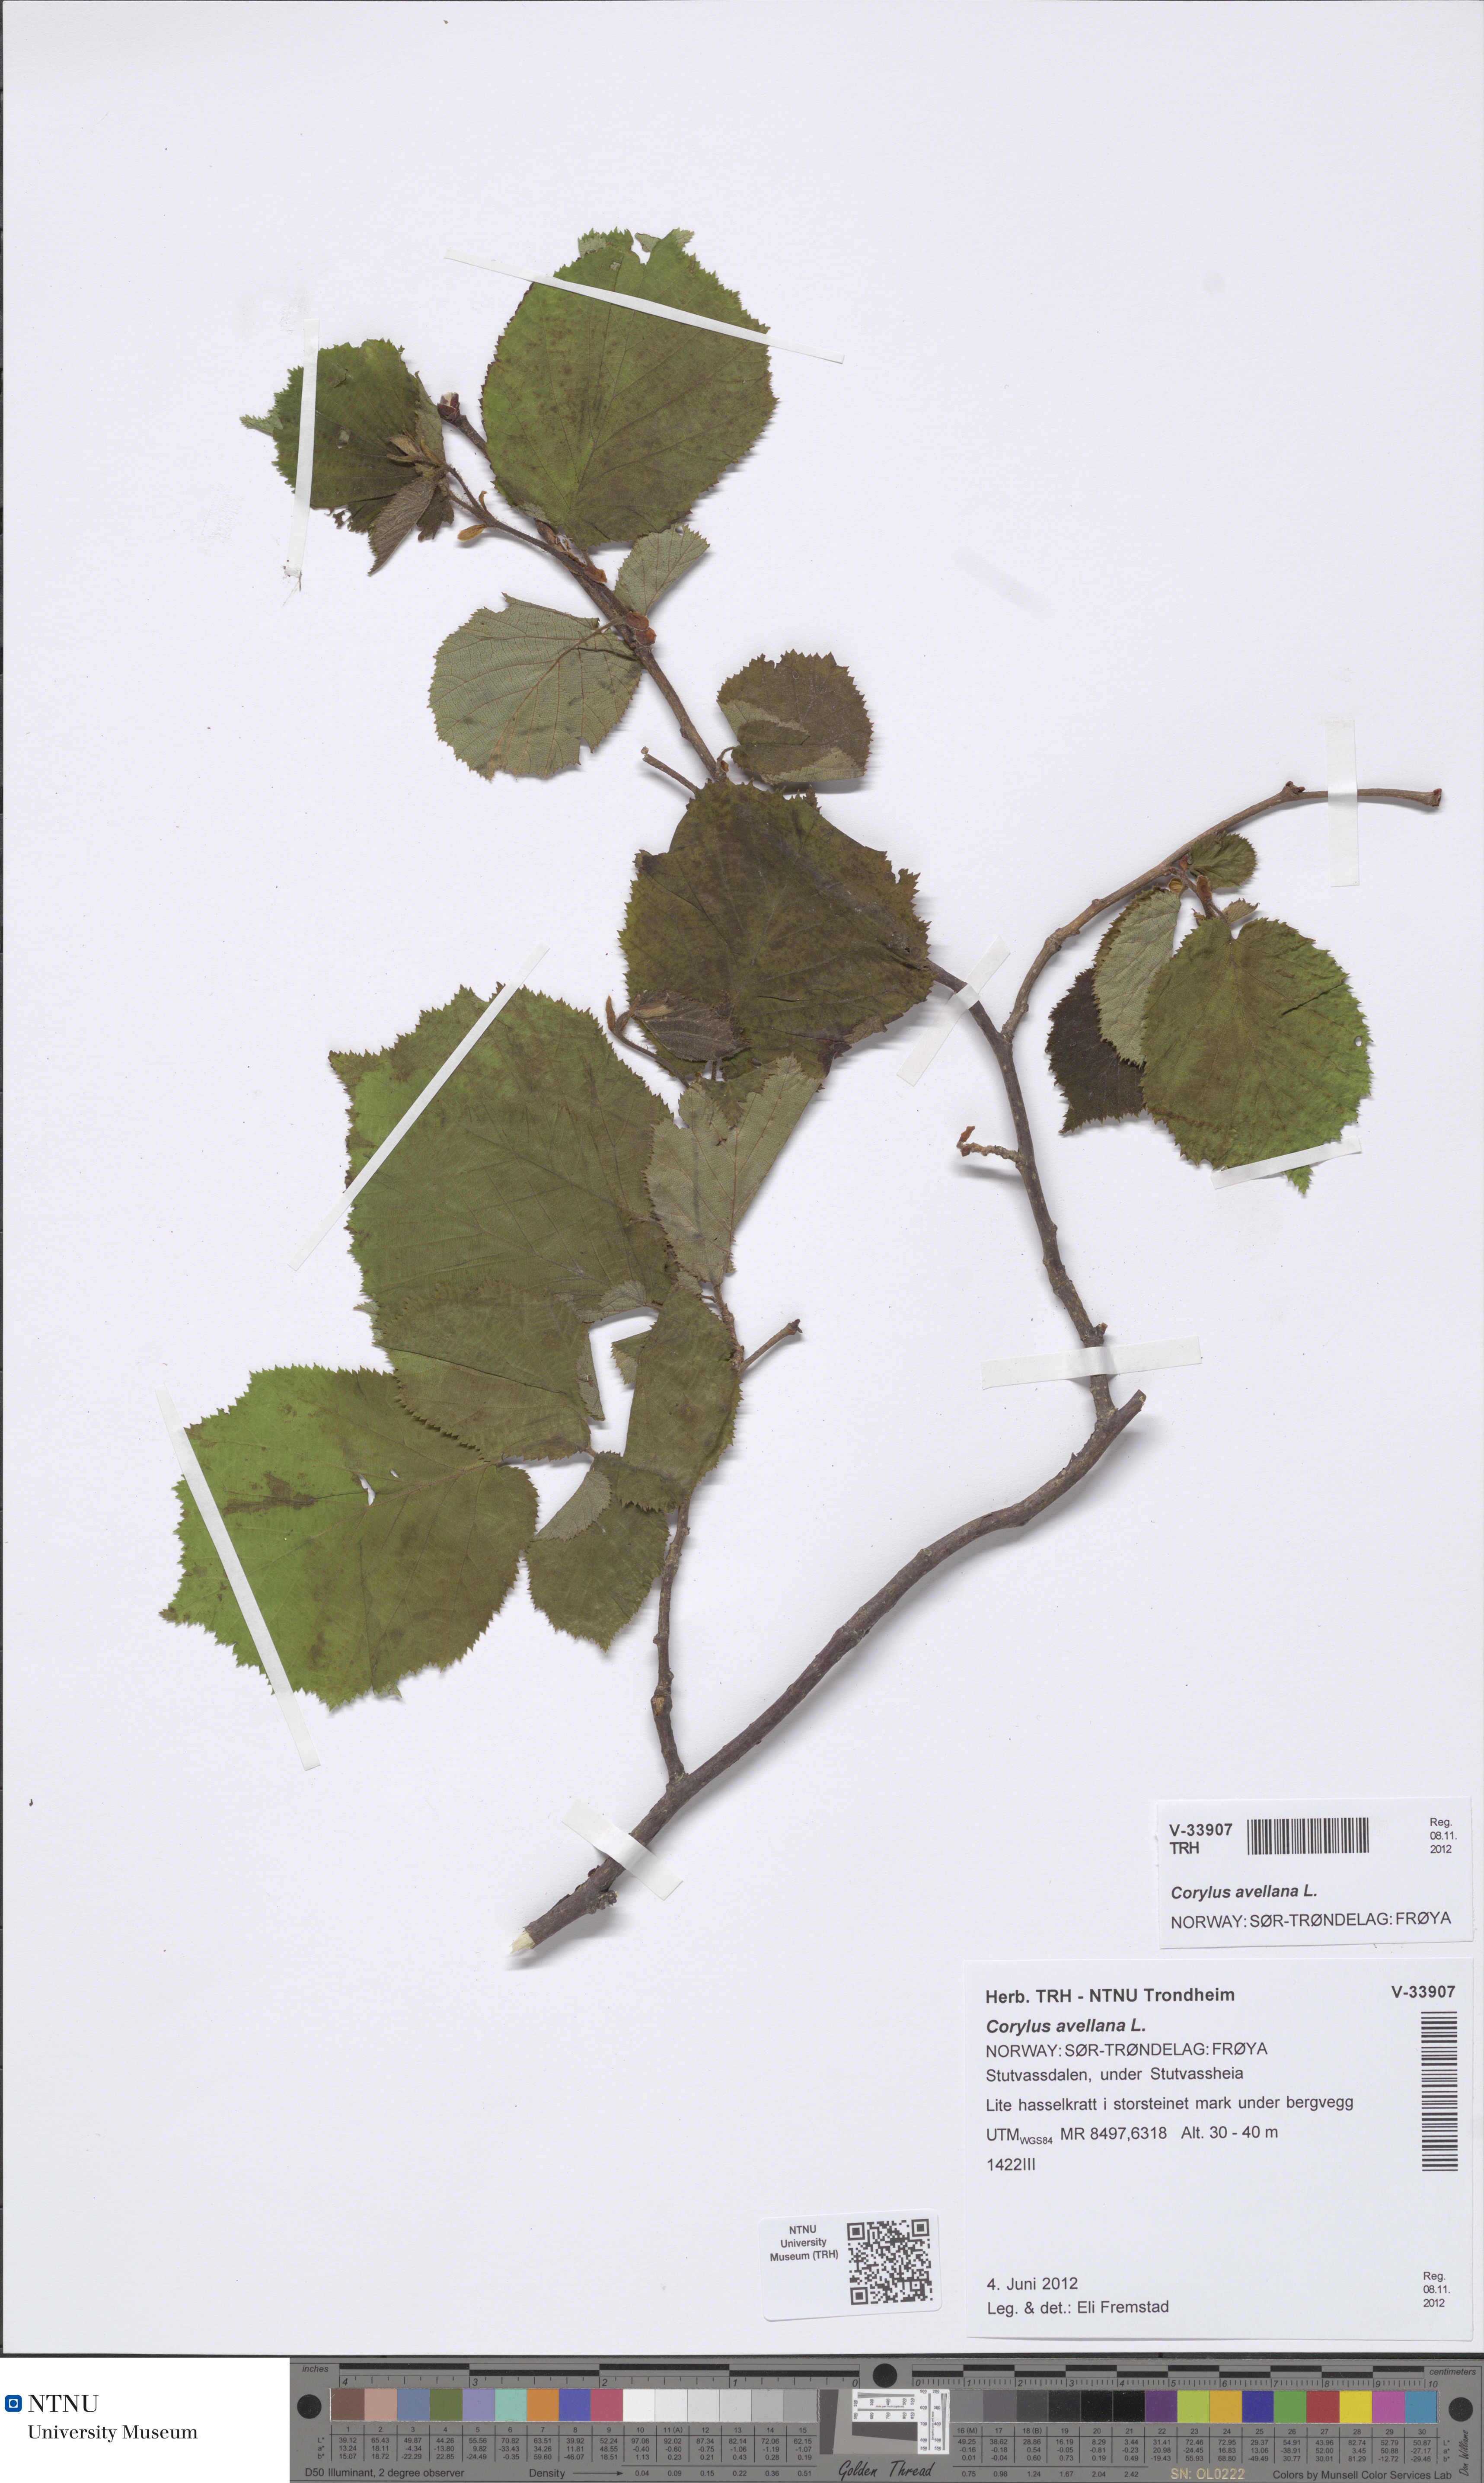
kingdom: Plantae
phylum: Tracheophyta
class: Magnoliopsida
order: Fagales
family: Betulaceae
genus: Corylus
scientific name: Corylus avellana
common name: European hazel
